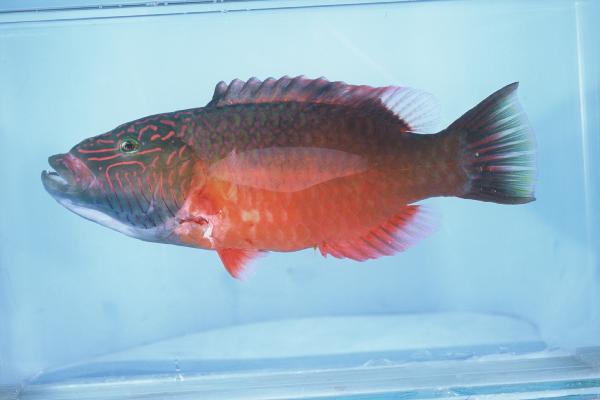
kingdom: Animalia
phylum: Chordata
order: Perciformes
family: Labridae
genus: Oxycheilinus
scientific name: Oxycheilinus digramma
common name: Bandcheek wrasse
